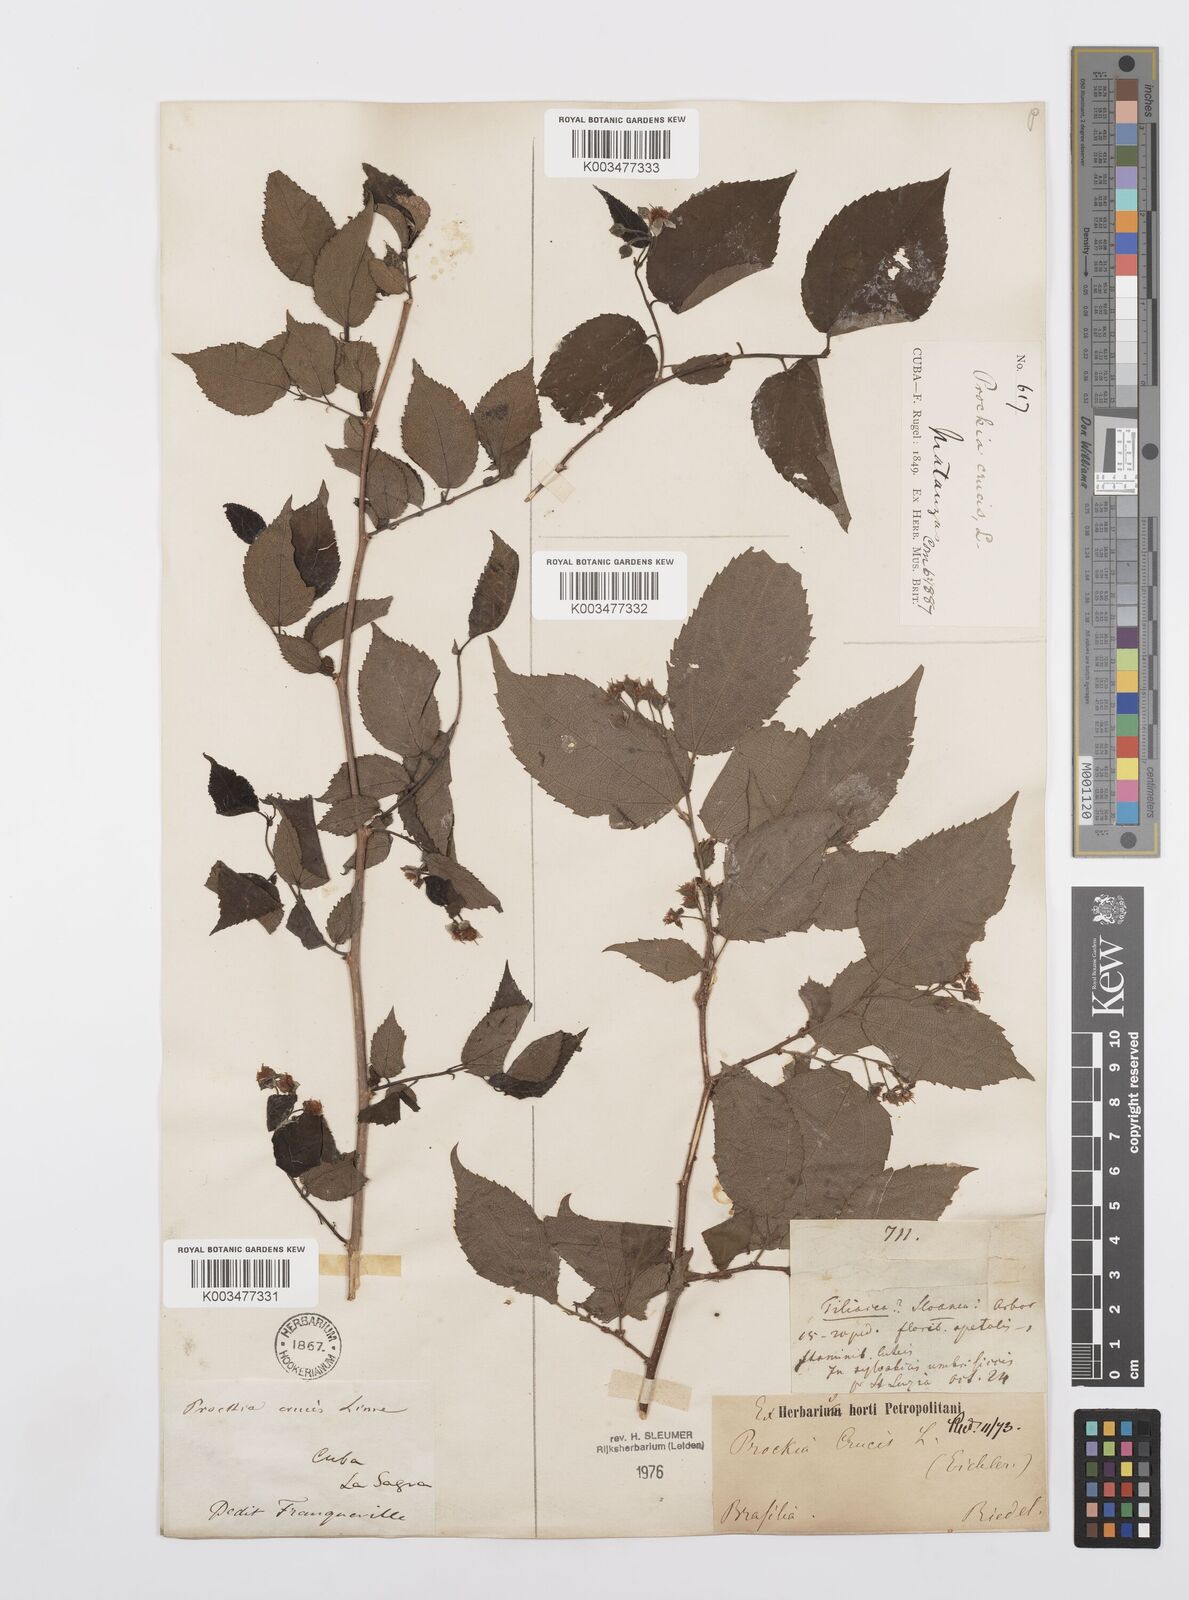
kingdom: Plantae
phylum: Tracheophyta
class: Magnoliopsida
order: Malpighiales
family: Salicaceae
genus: Prockia
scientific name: Prockia crucis
